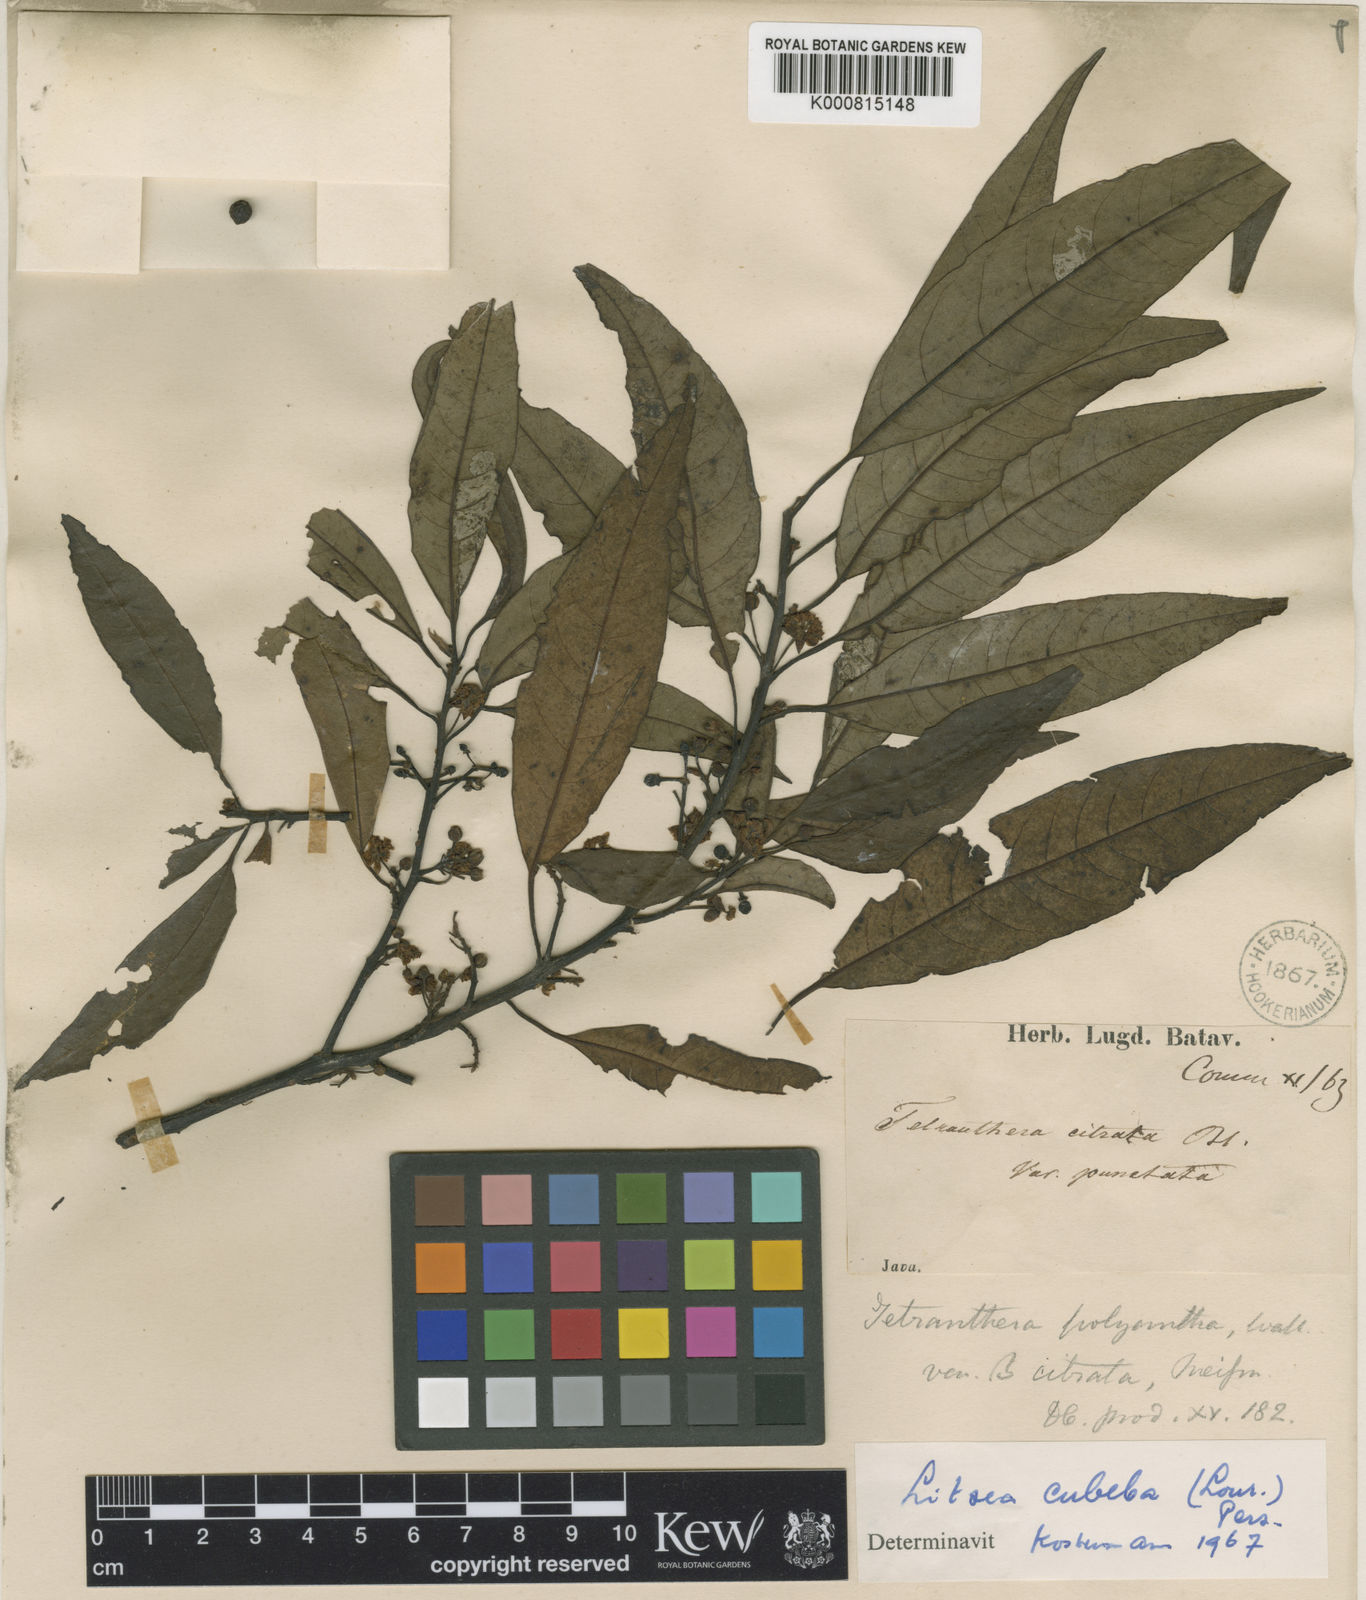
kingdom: Plantae
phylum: Tracheophyta
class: Magnoliopsida
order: Laurales
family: Lauraceae
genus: Litsea
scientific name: Litsea cubeba
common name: Mountain-pepper
